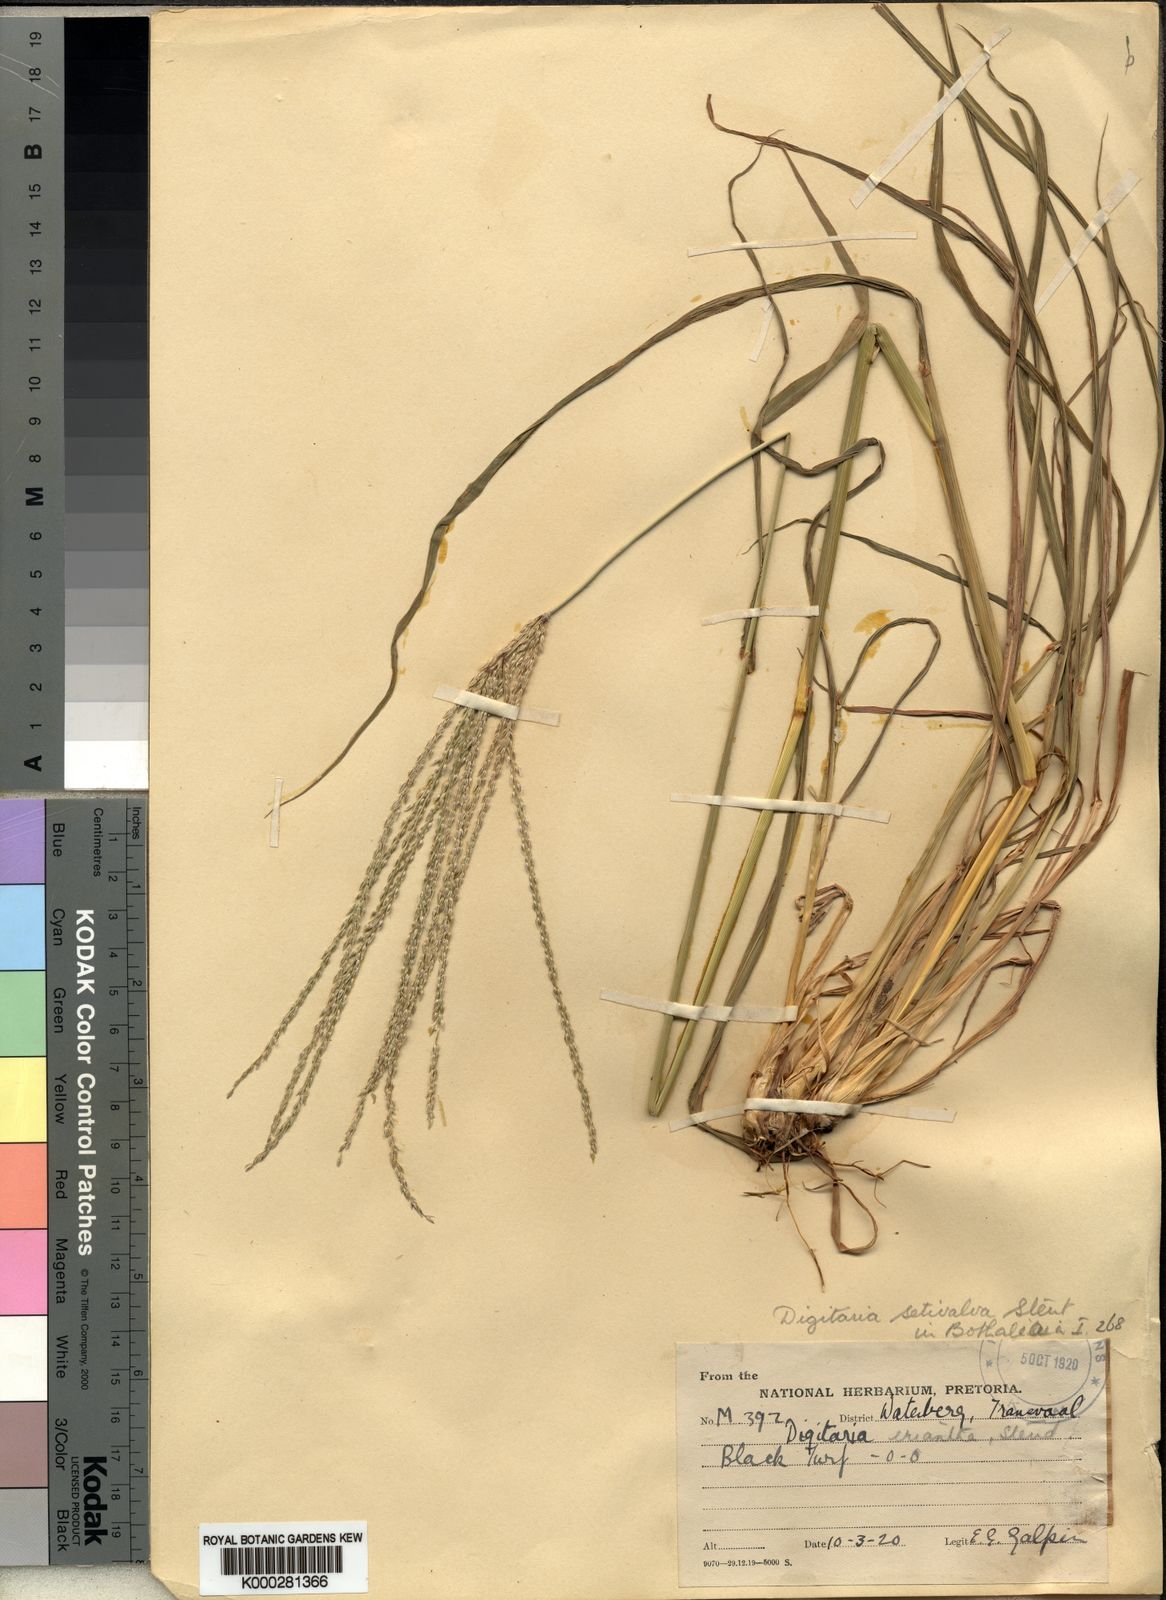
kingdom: Plantae
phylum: Tracheophyta
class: Liliopsida
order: Poales
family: Poaceae
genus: Digitaria
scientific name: Digitaria milanjiana
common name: Madagascar crabgrass
